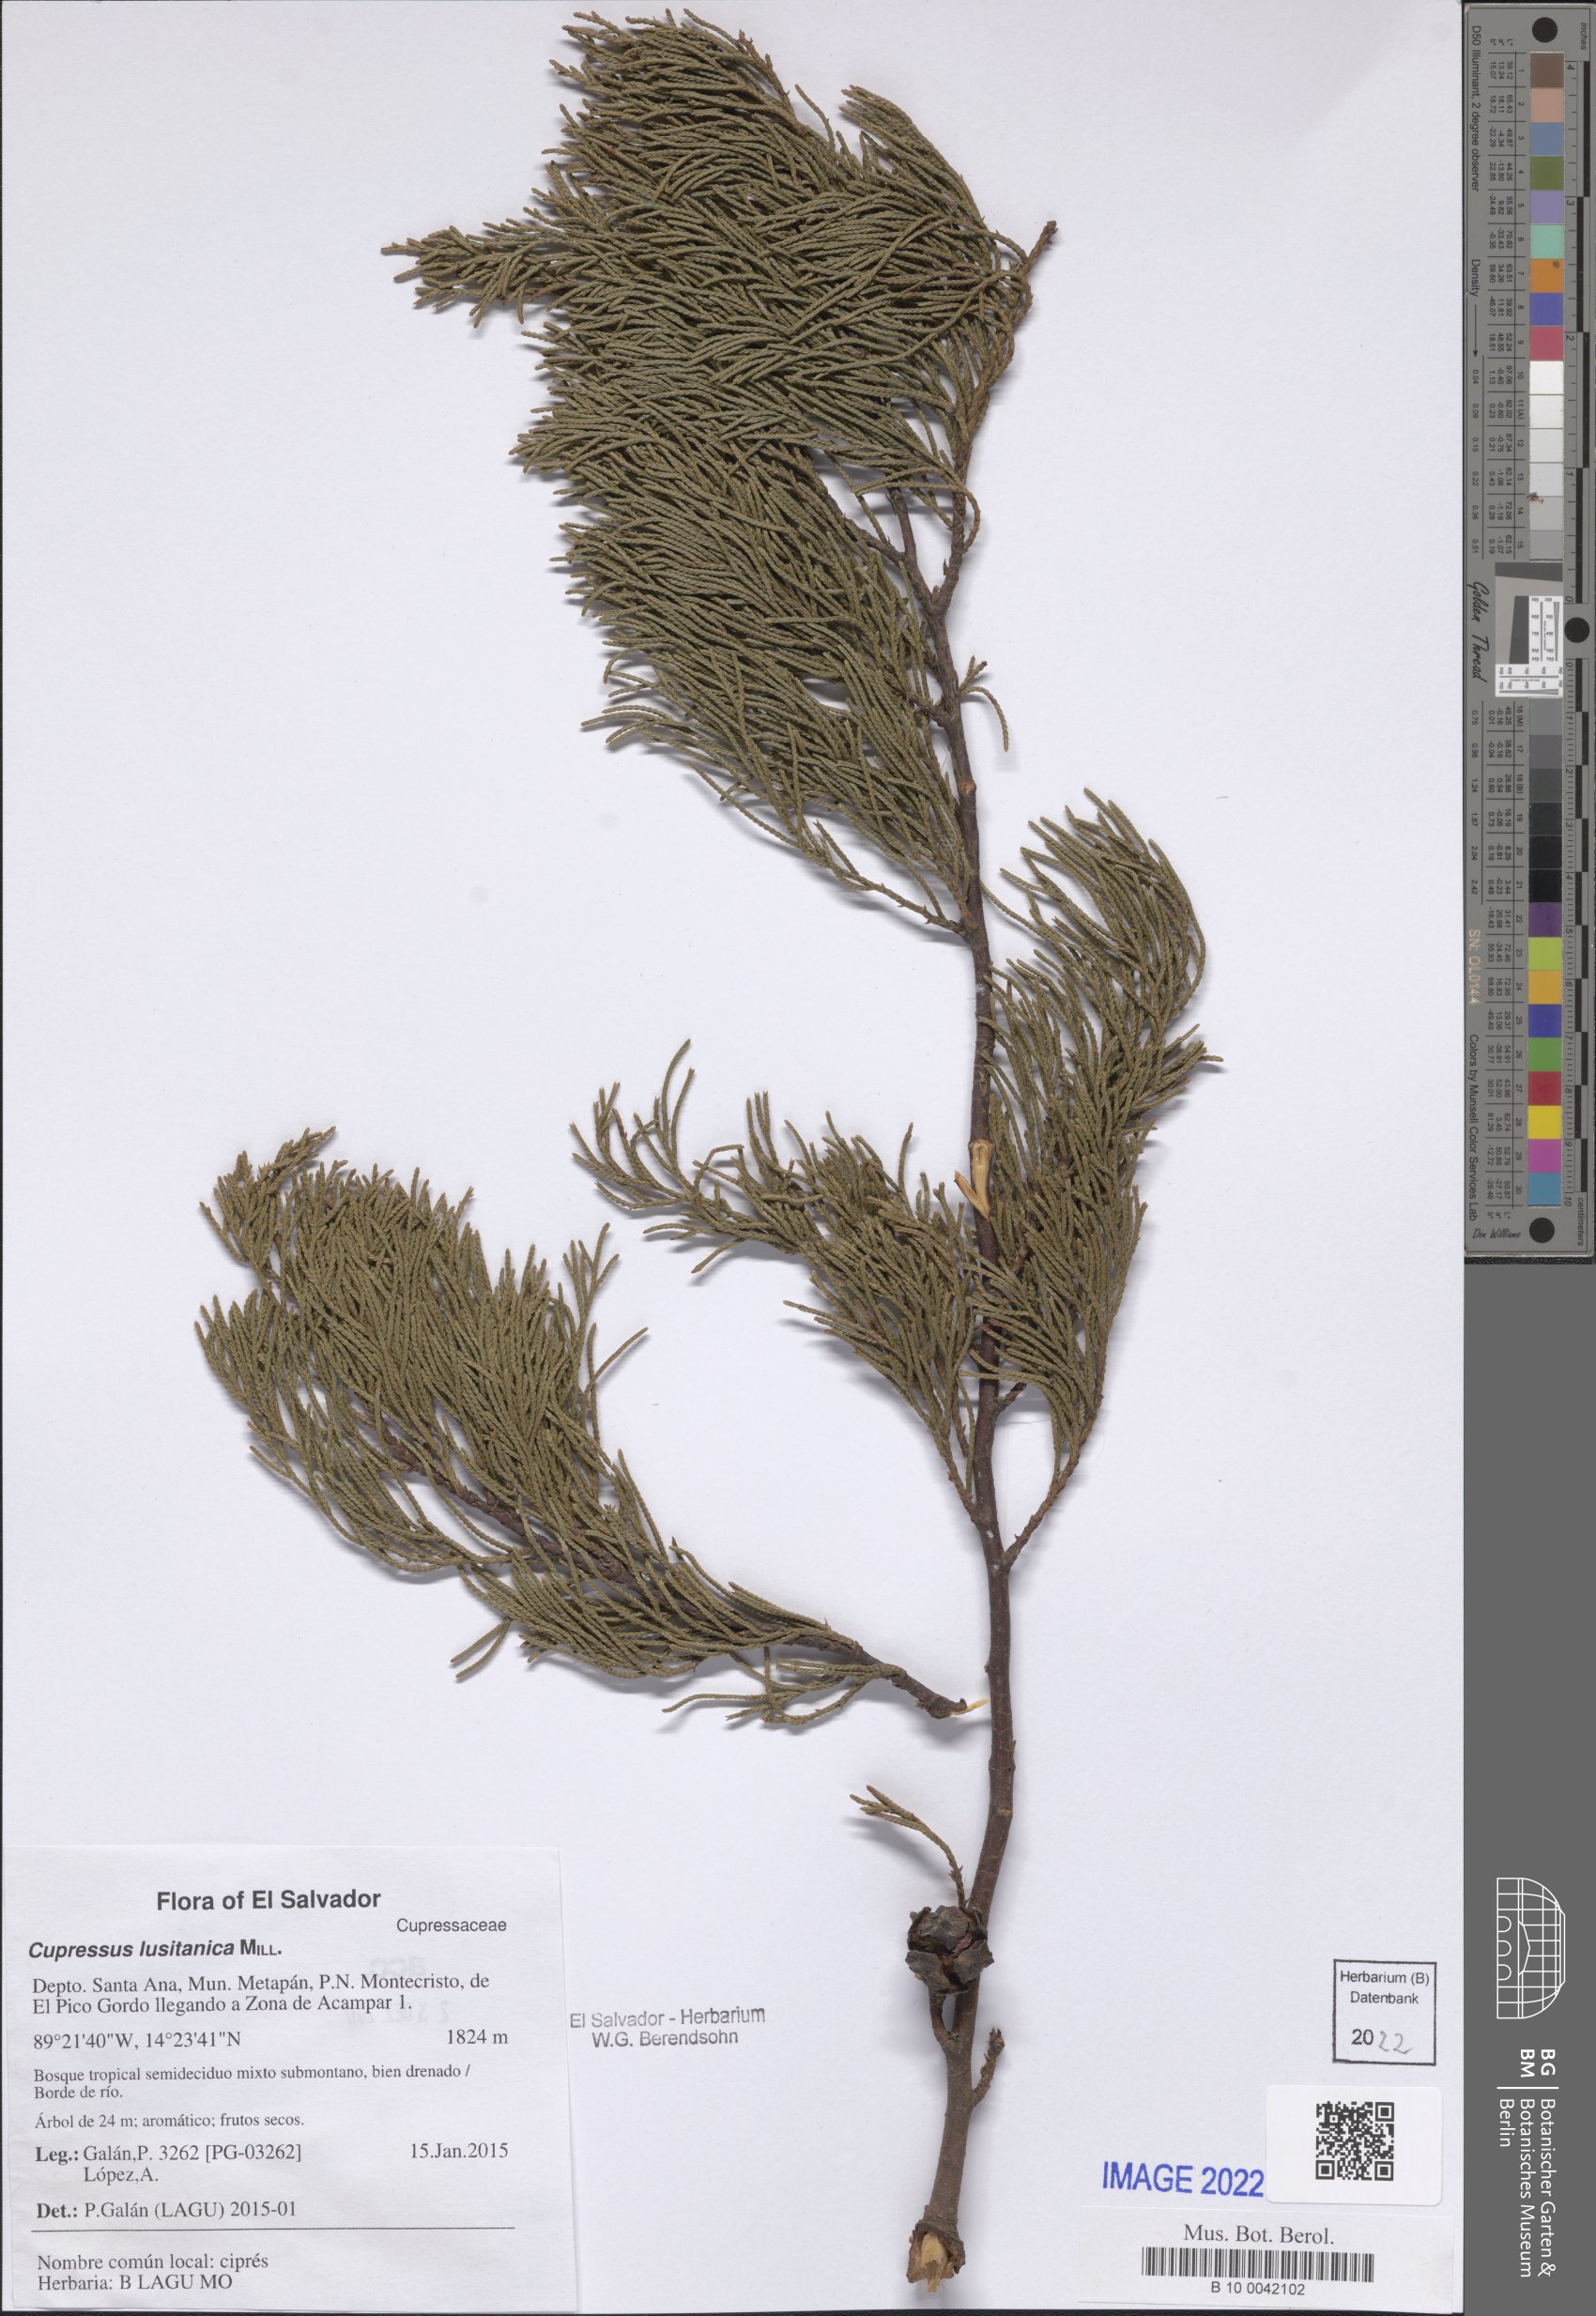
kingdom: Plantae
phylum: Tracheophyta
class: Pinopsida
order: Pinales
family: Cupressaceae
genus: Cupressus
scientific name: Cupressus lusitanica
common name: Mexican cypress
